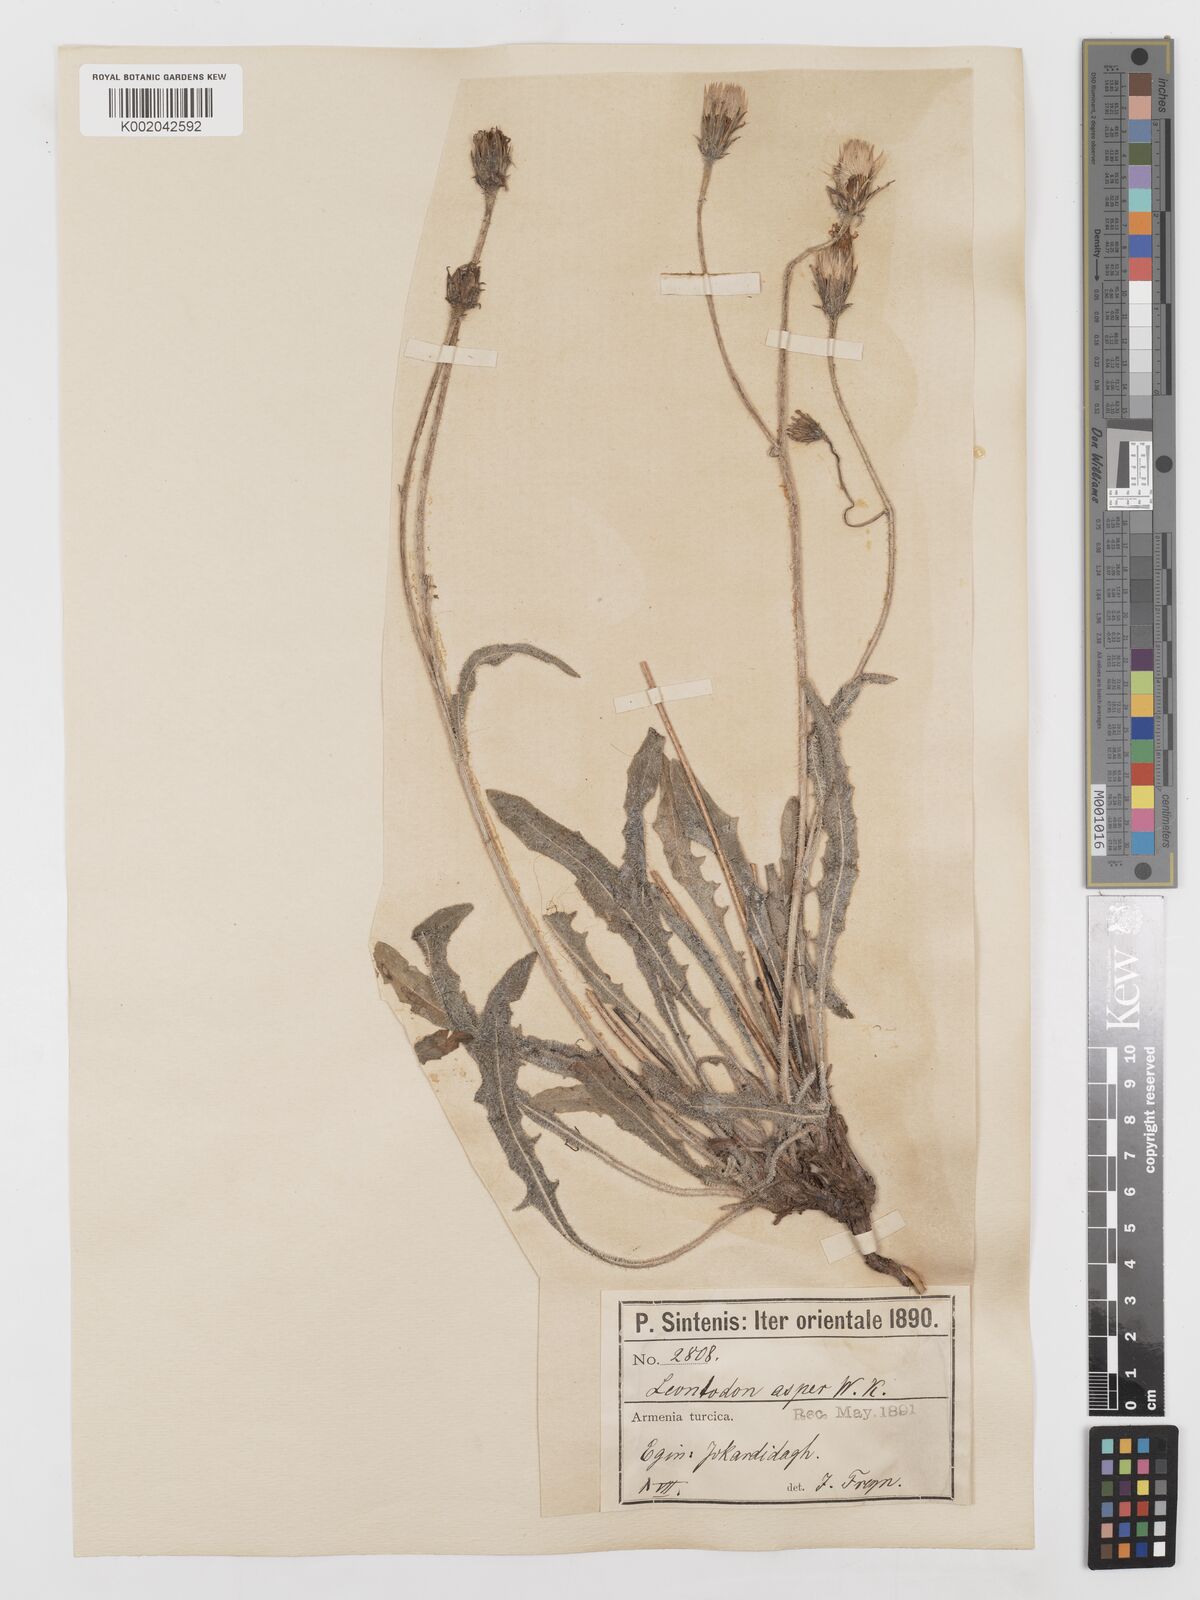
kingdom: Plantae
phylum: Tracheophyta
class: Magnoliopsida
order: Asterales
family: Asteraceae
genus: Leontodon
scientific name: Leontodon biscutellifolius
